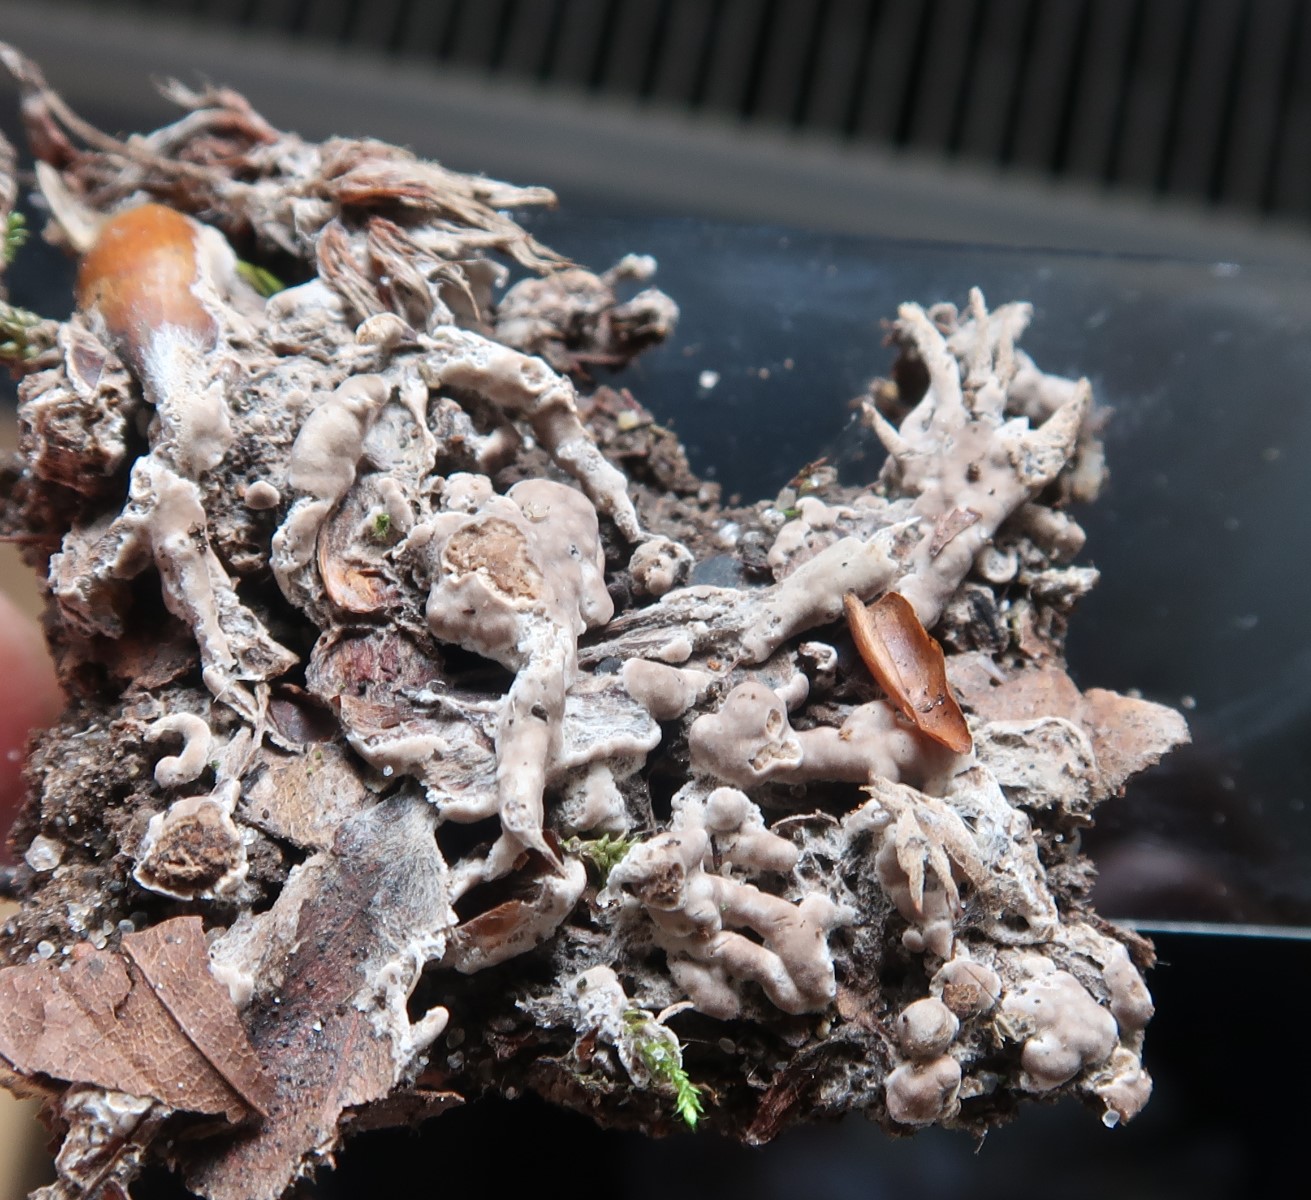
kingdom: Fungi
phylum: Basidiomycota
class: Agaricomycetes
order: Sebacinales
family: Sebacinaceae
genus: Sebacina
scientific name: Sebacina
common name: bævretalg
